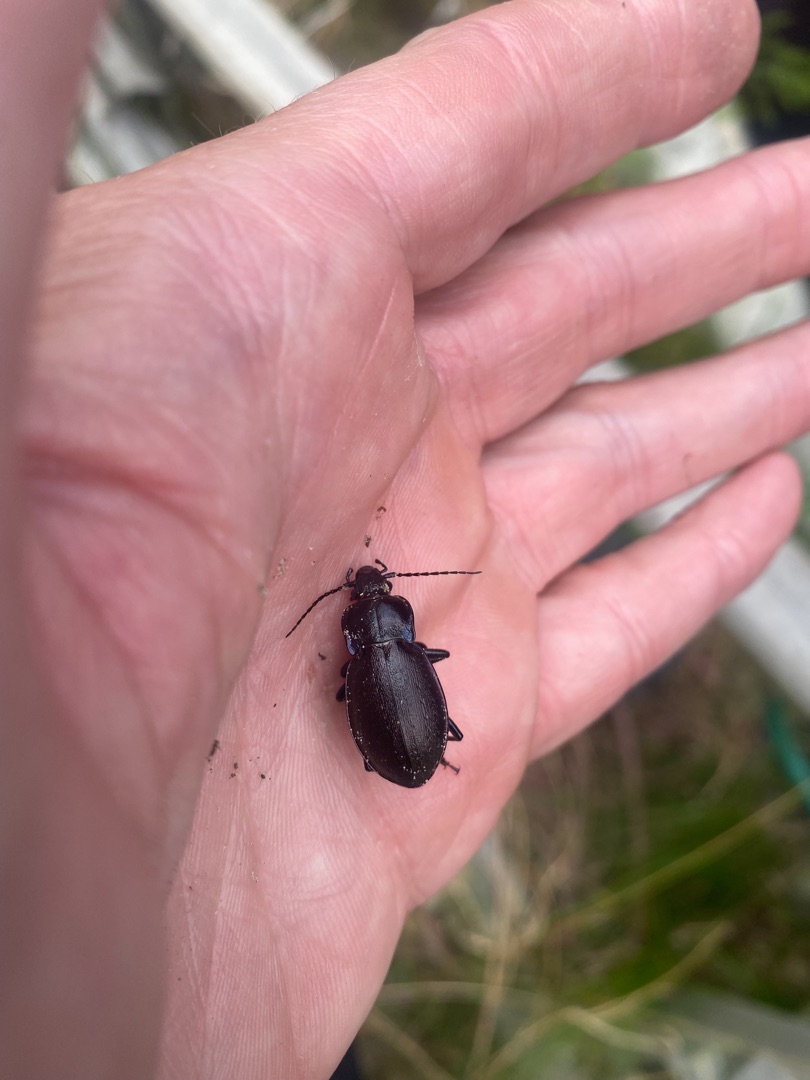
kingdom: Animalia
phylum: Arthropoda
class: Insecta
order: Coleoptera
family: Carabidae
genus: Carabus
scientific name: Carabus nemoralis
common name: Kratløber
